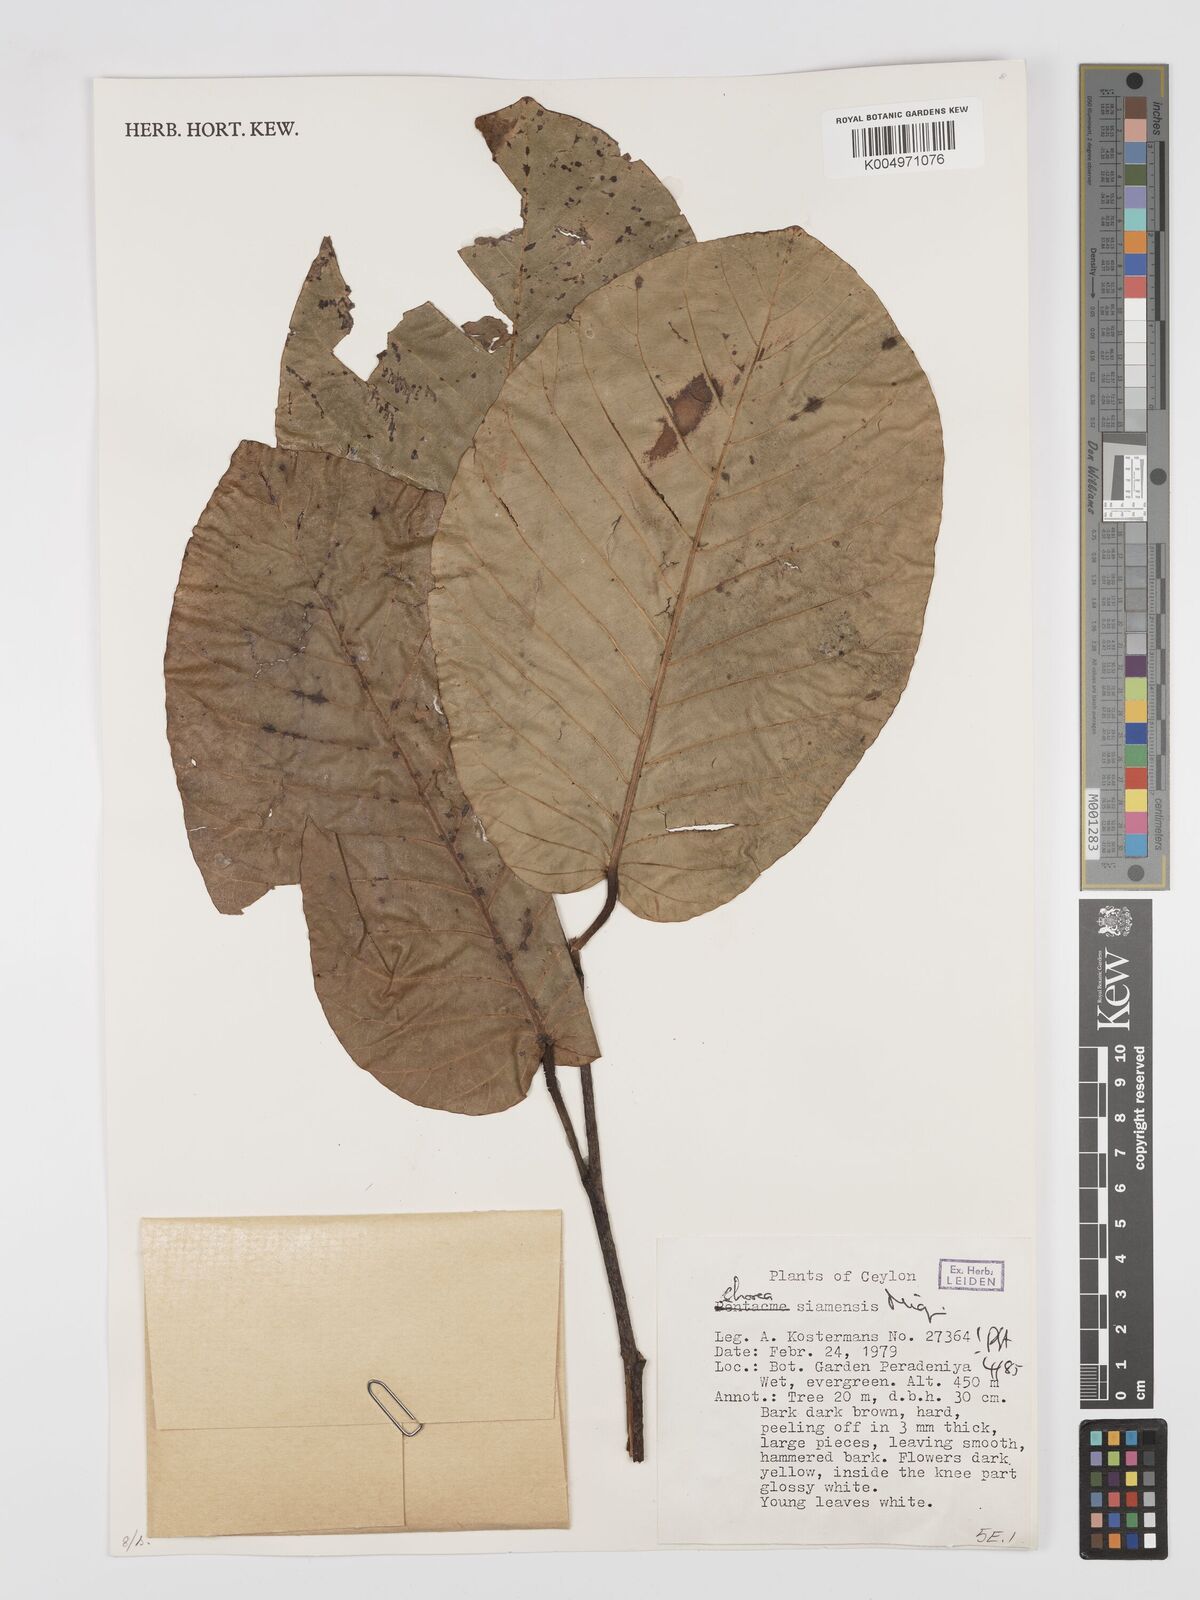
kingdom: Plantae
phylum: Tracheophyta
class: Magnoliopsida
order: Malvales
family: Dipterocarpaceae
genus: Pentacme
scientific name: Pentacme siamensis
